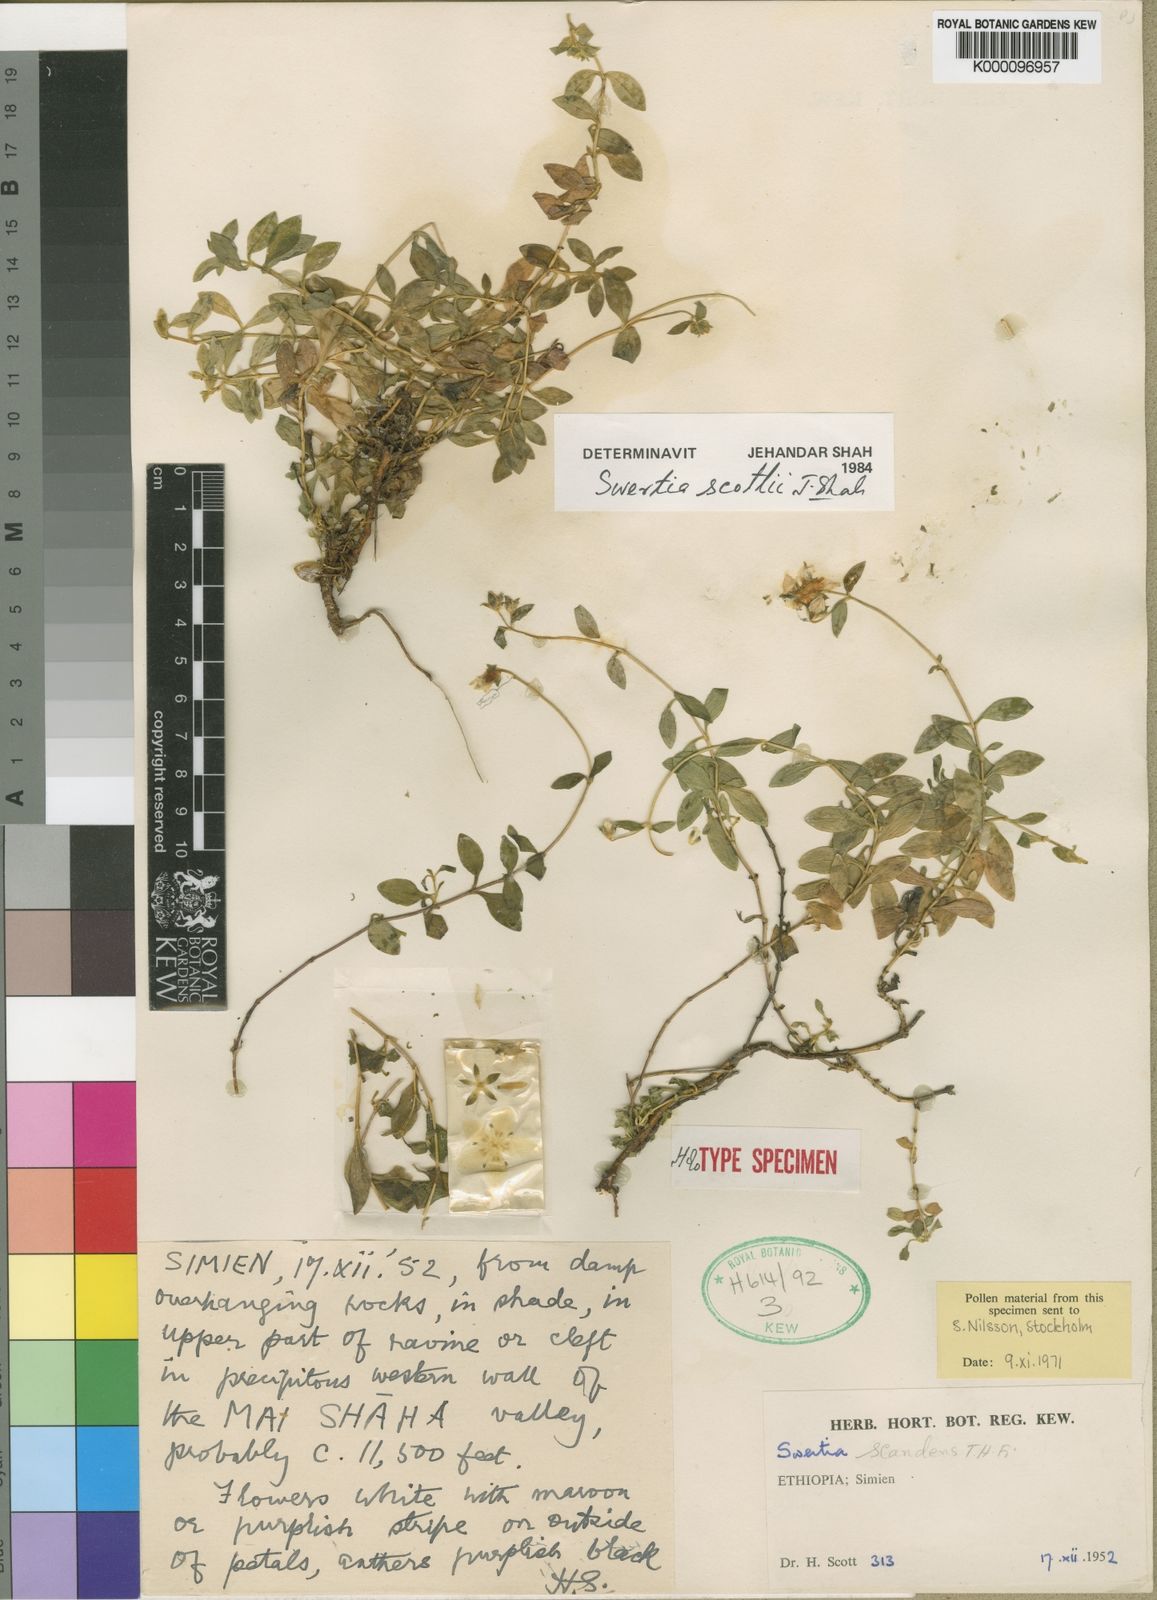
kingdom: Plantae
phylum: Tracheophyta
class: Magnoliopsida
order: Gentianales
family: Gentianaceae
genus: Swertia
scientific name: Swertia scottii
